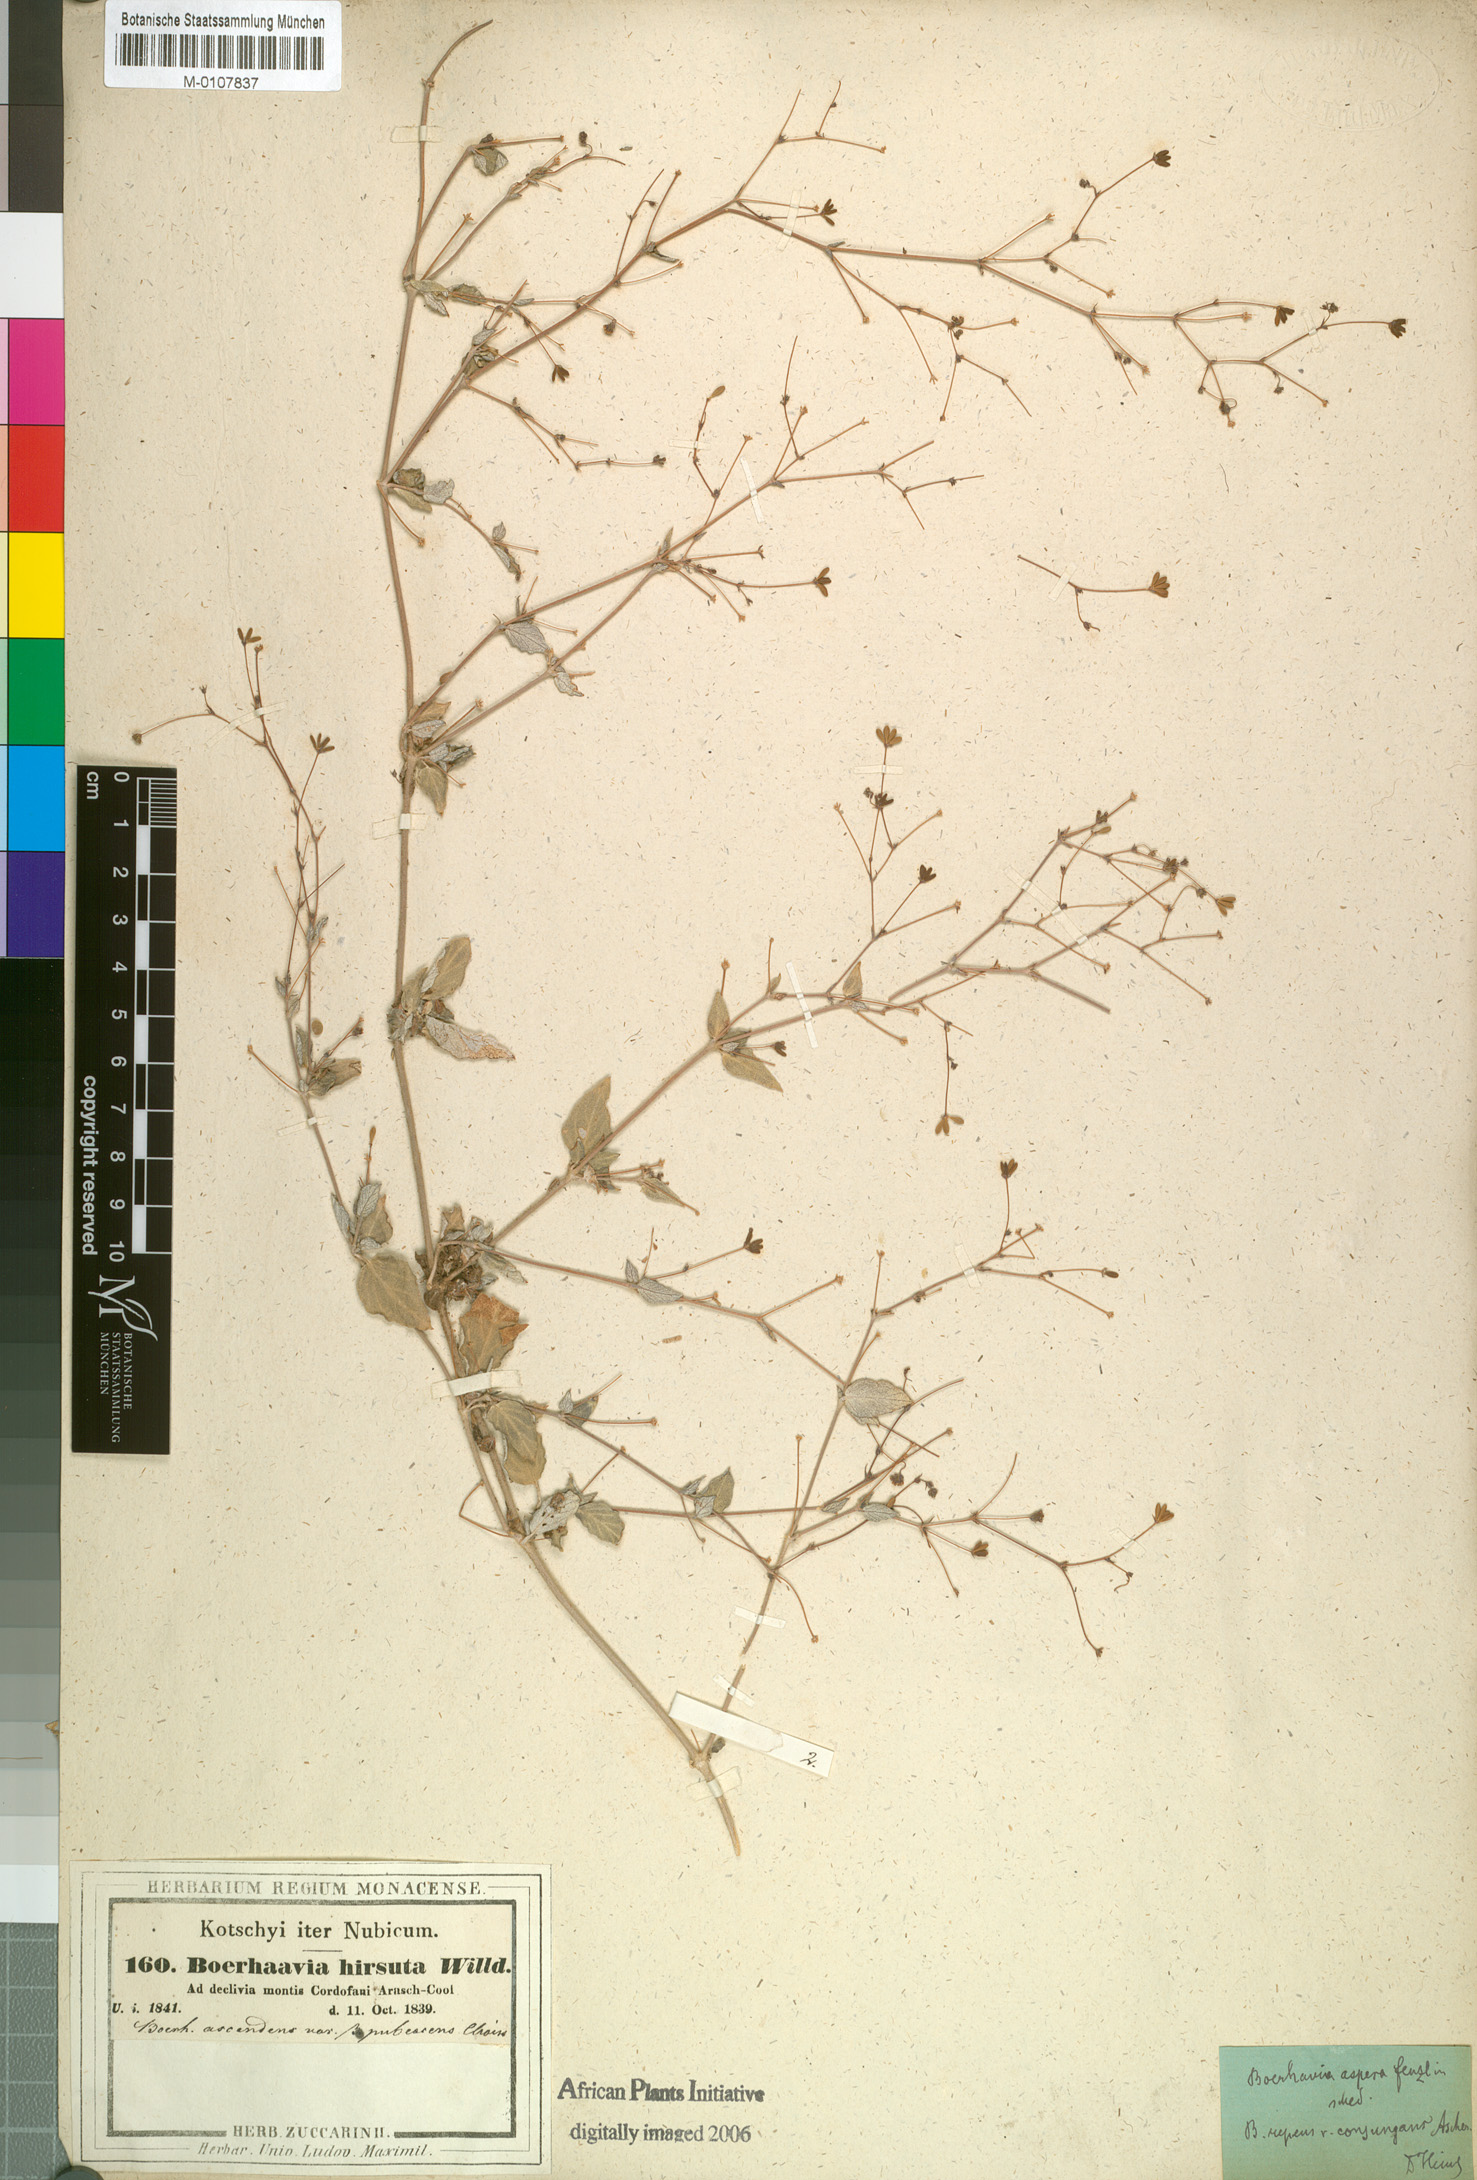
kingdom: Plantae
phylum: Tracheophyta
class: Magnoliopsida
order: Caryophyllales
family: Nyctaginaceae
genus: Boerhavia
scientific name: Boerhavia diffusa
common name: Red spiderling
